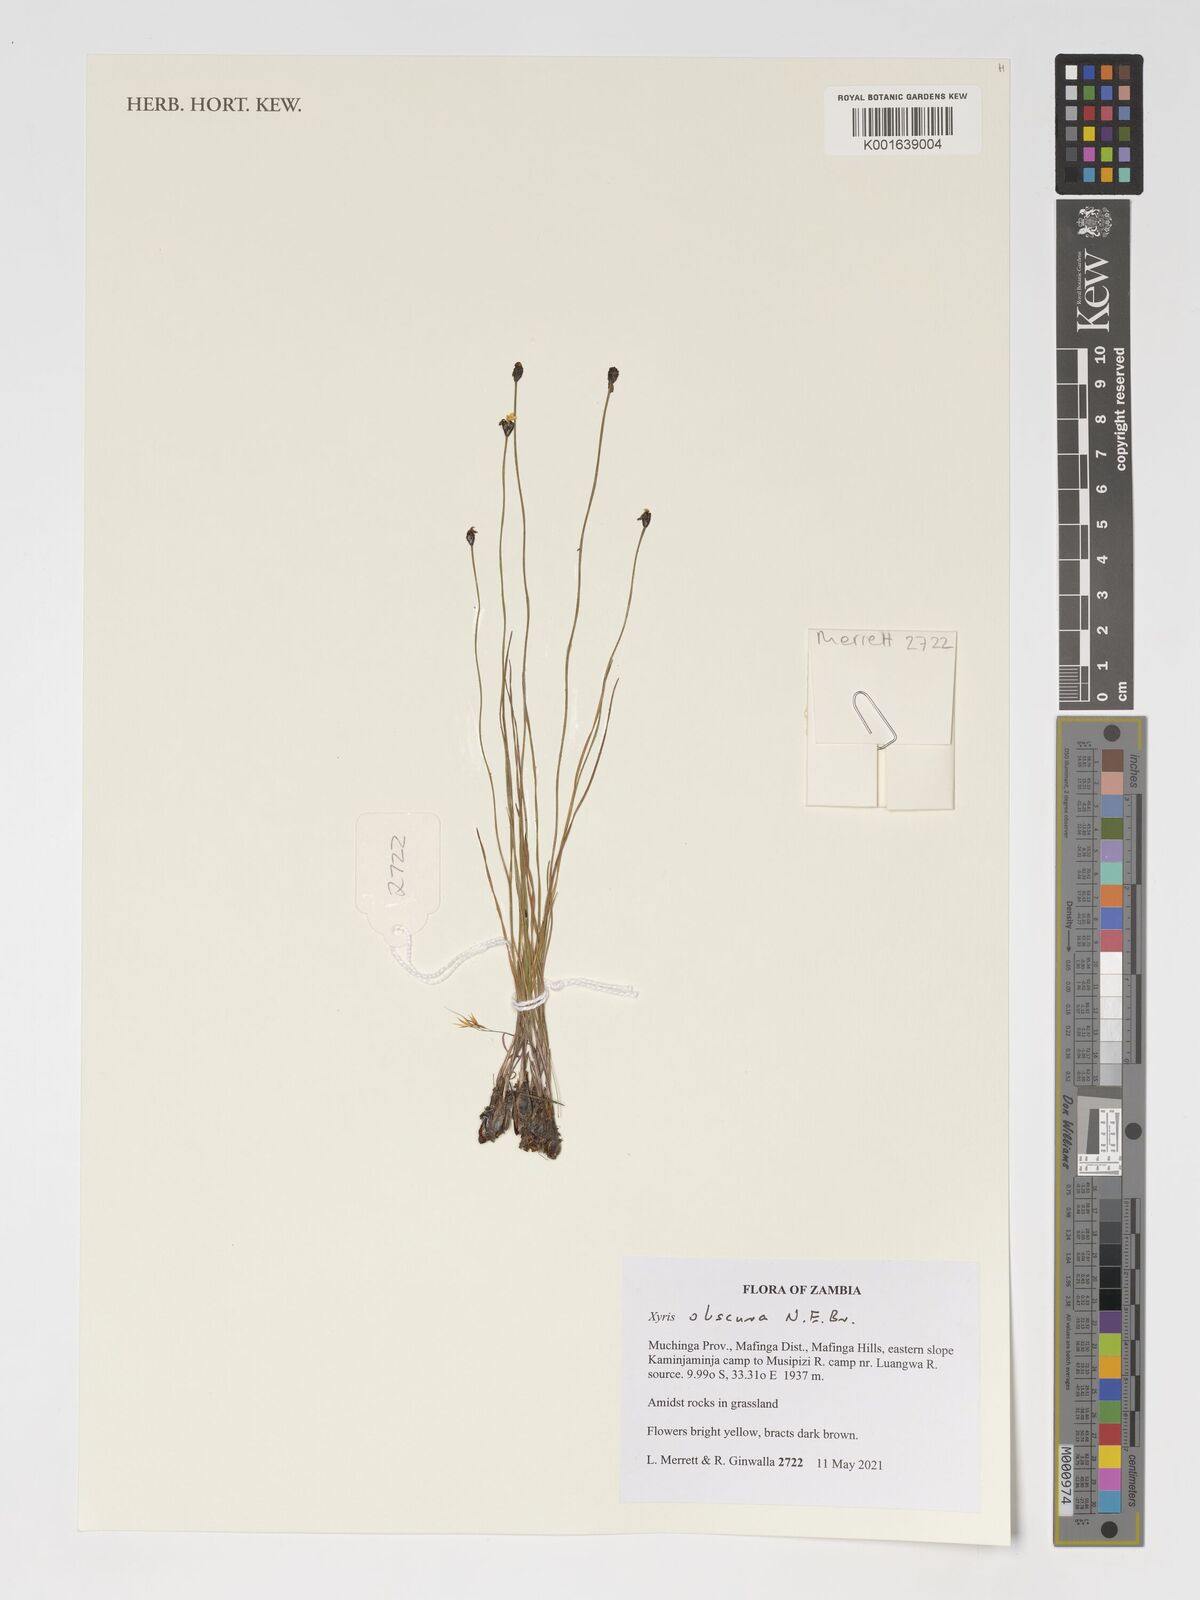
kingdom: Plantae
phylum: Tracheophyta
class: Liliopsida
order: Poales
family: Xyridaceae
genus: Xyris
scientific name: Xyris obscura
